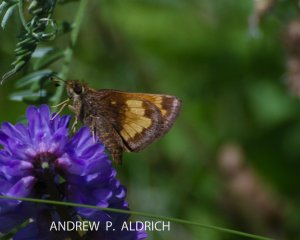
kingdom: Animalia
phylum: Arthropoda
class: Insecta
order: Lepidoptera
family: Hesperiidae
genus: Lon
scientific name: Lon hobomok
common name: Hobomok Skipper
